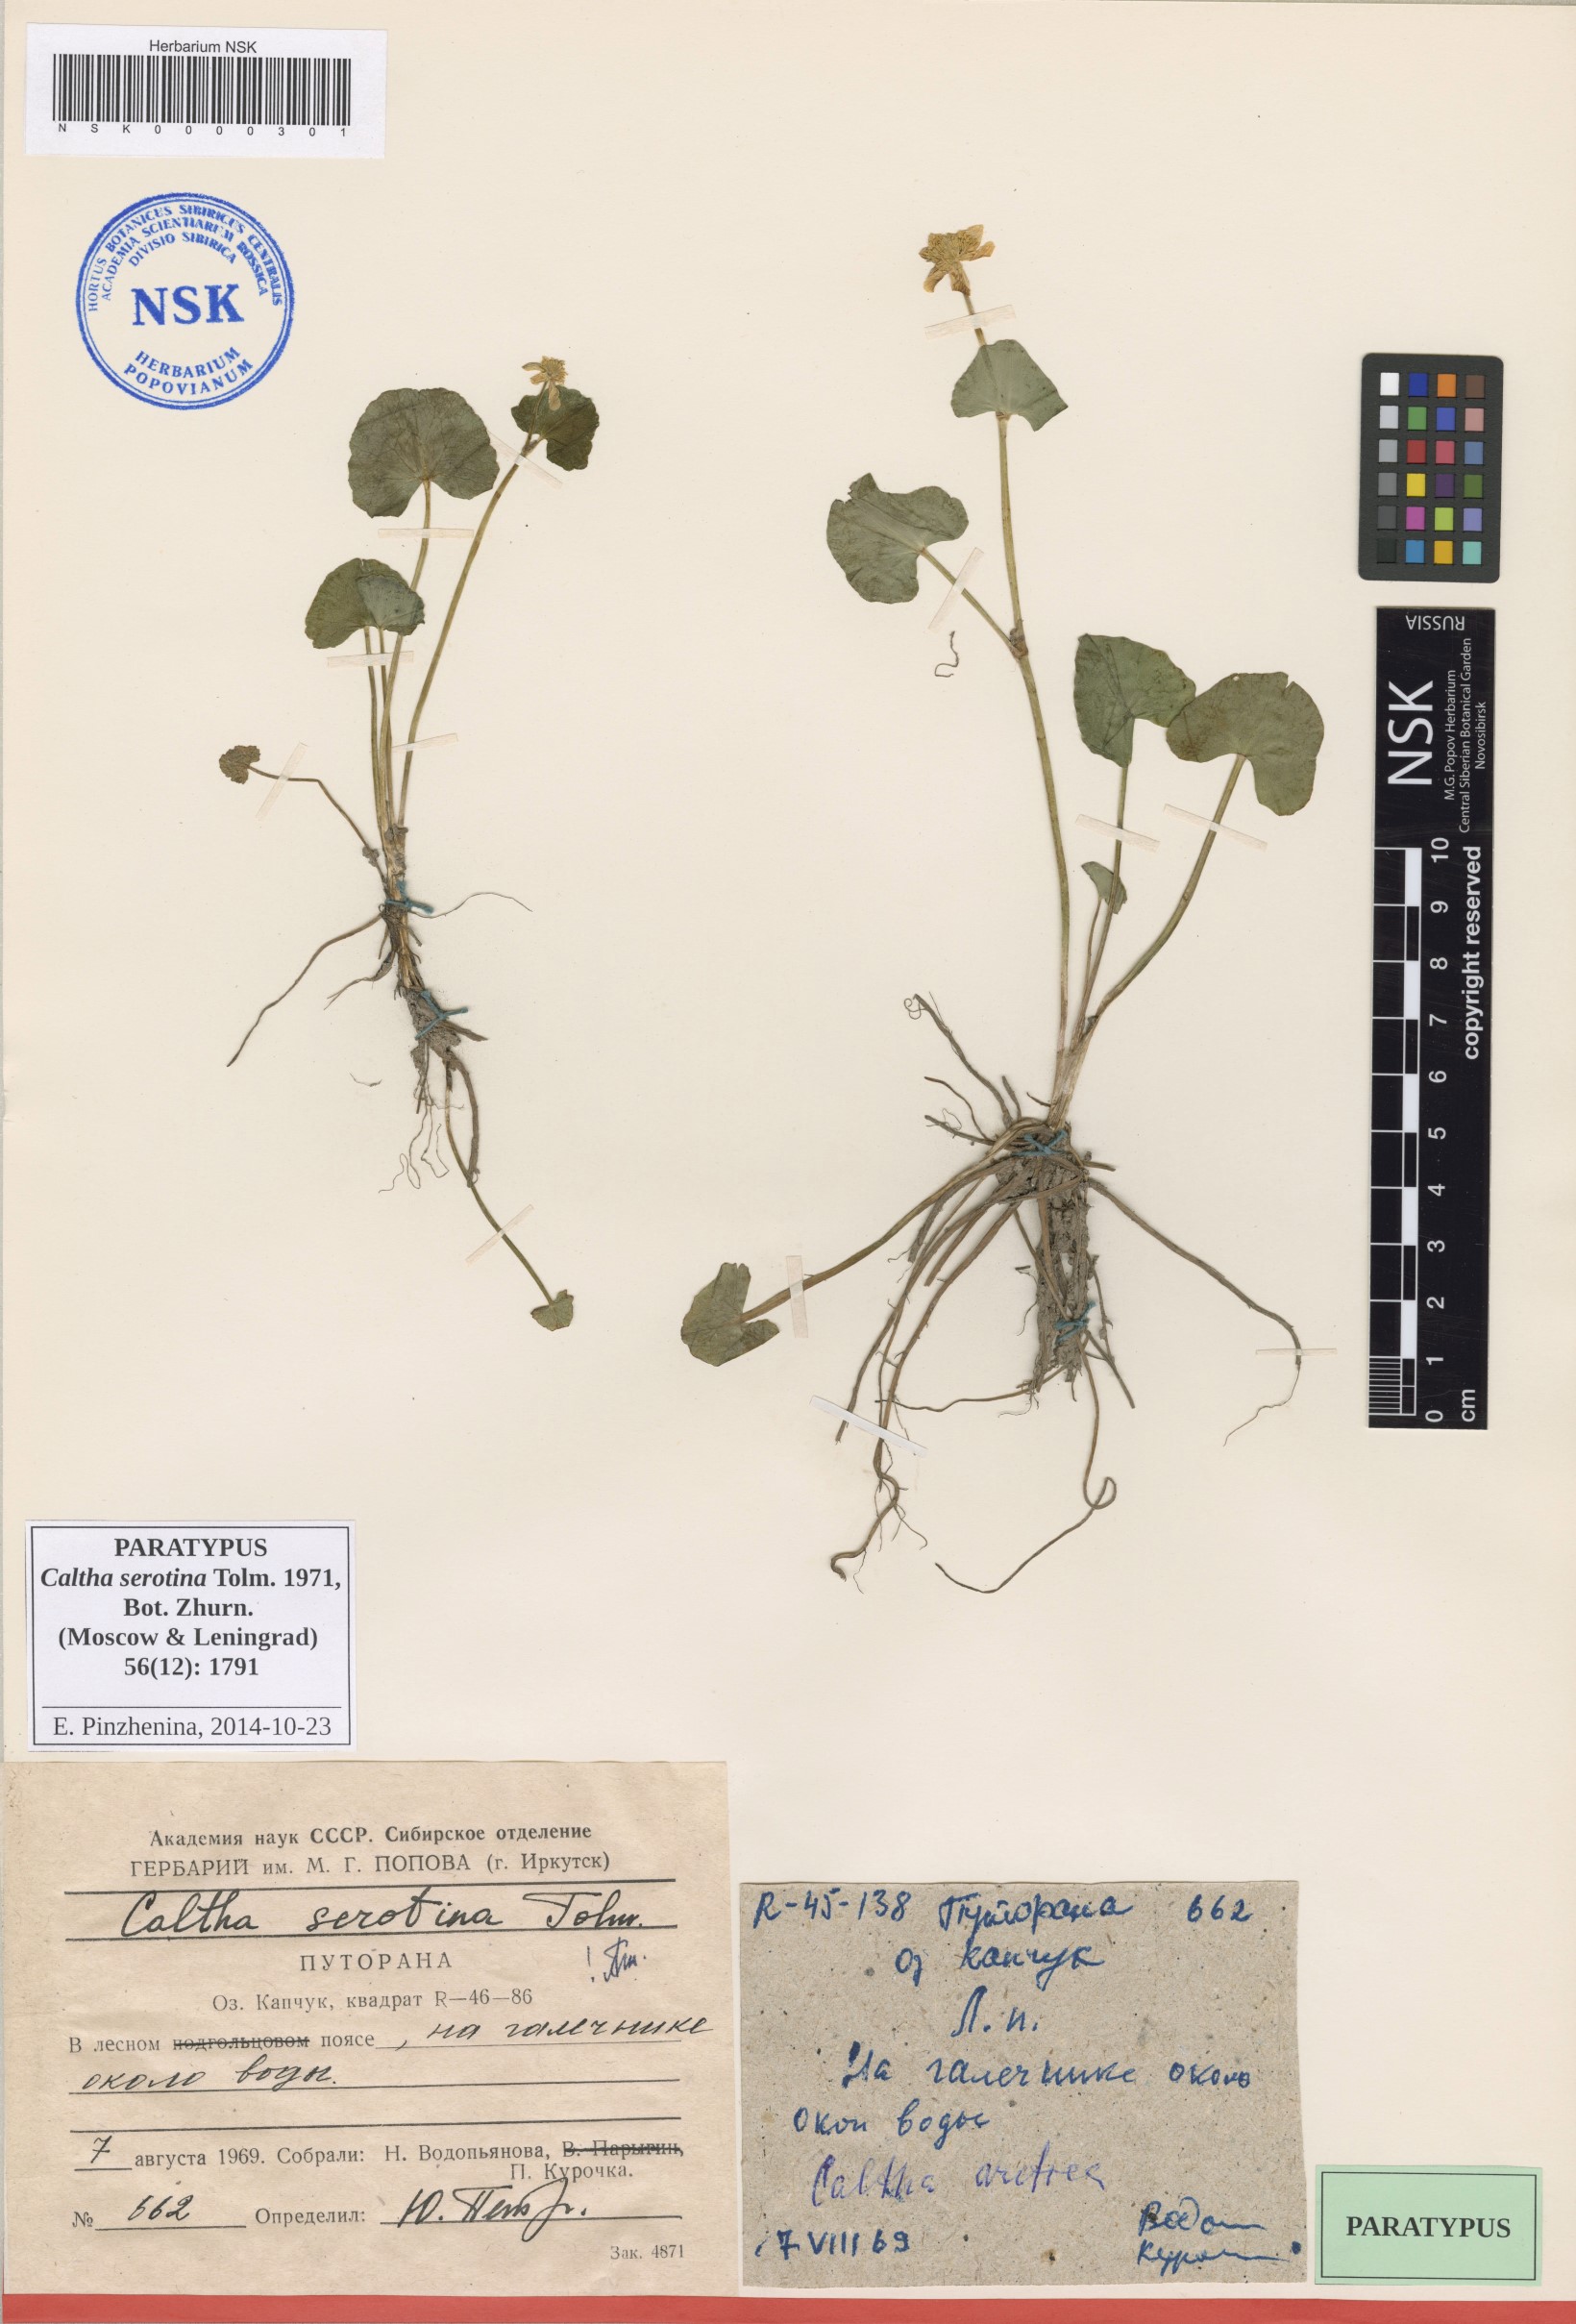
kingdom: Plantae
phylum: Tracheophyta
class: Magnoliopsida
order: Ranunculales
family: Ranunculaceae
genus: Caltha
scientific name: Caltha palustris
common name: Marsh marigold
